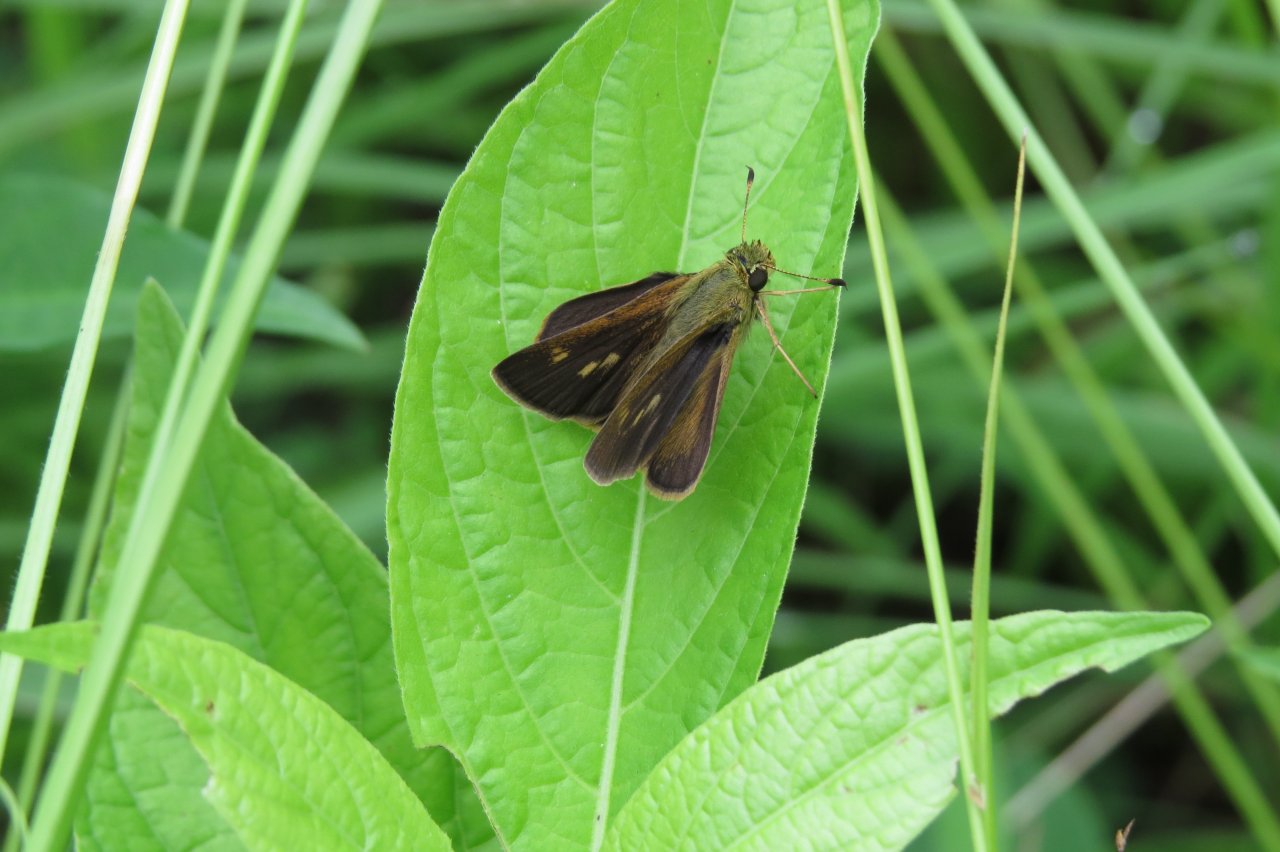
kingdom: Animalia
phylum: Arthropoda
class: Insecta
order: Lepidoptera
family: Hesperiidae
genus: Polites
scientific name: Polites egeremet
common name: Northern Broken-Dash
